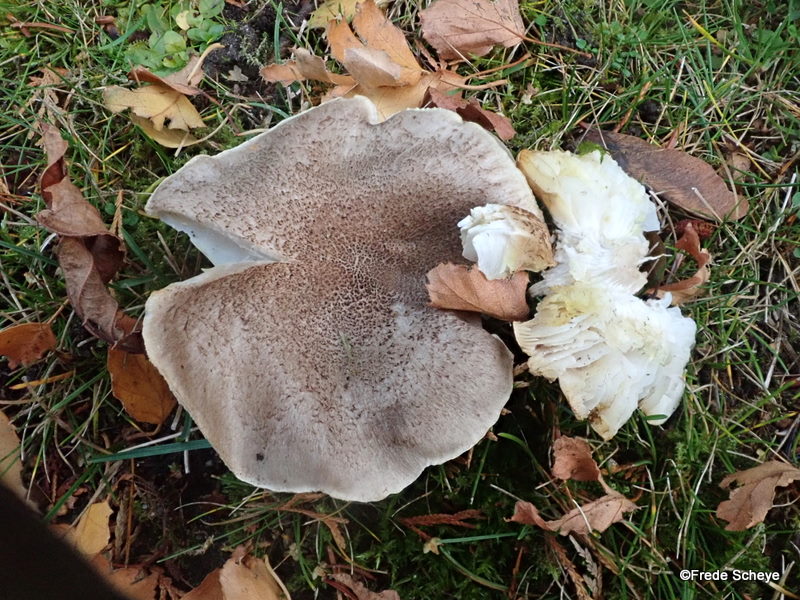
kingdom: Fungi
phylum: Basidiomycota
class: Agaricomycetes
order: Agaricales
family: Tricholomataceae
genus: Tricholoma
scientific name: Tricholoma scalpturatum
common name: gulplettet ridderhat
